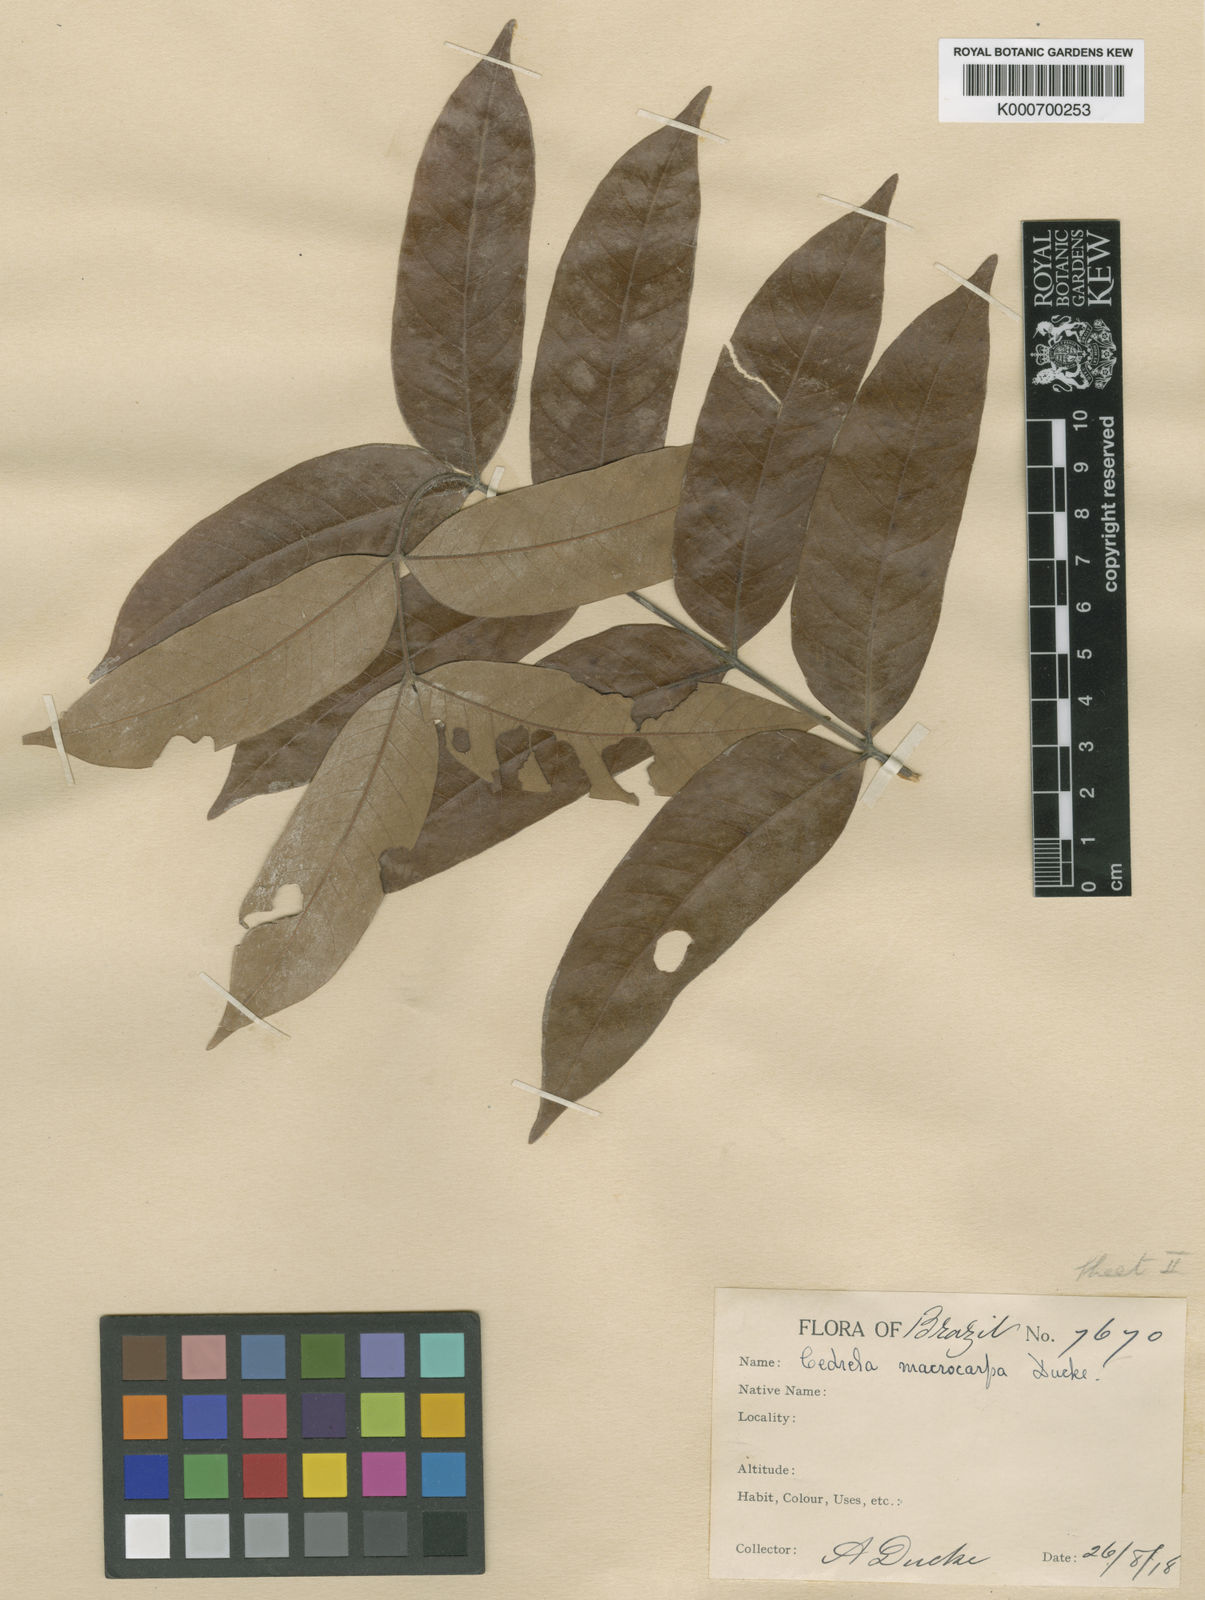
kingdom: Plantae
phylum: Tracheophyta
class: Magnoliopsida
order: Sapindales
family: Meliaceae
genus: Cedrela
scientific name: Cedrela fissilis
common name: Argentine cedar
